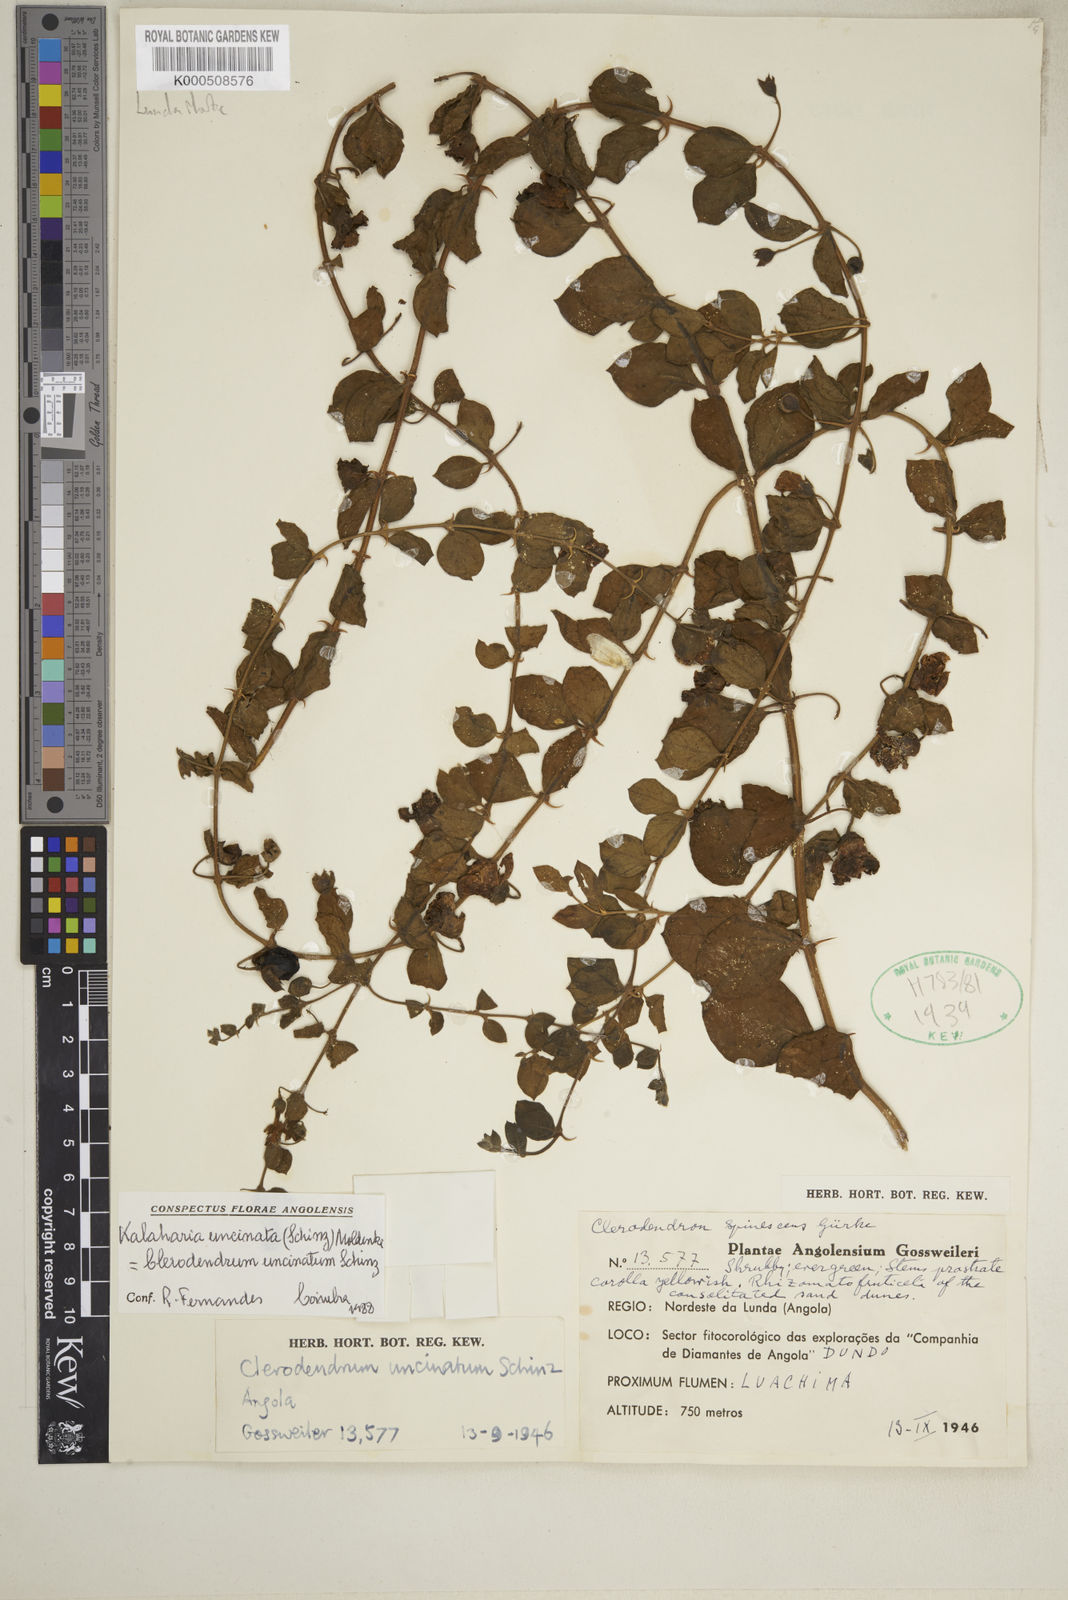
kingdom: Plantae
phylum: Tracheophyta
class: Magnoliopsida
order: Lamiales
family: Lamiaceae
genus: Kalaharia
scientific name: Kalaharia uncinata
